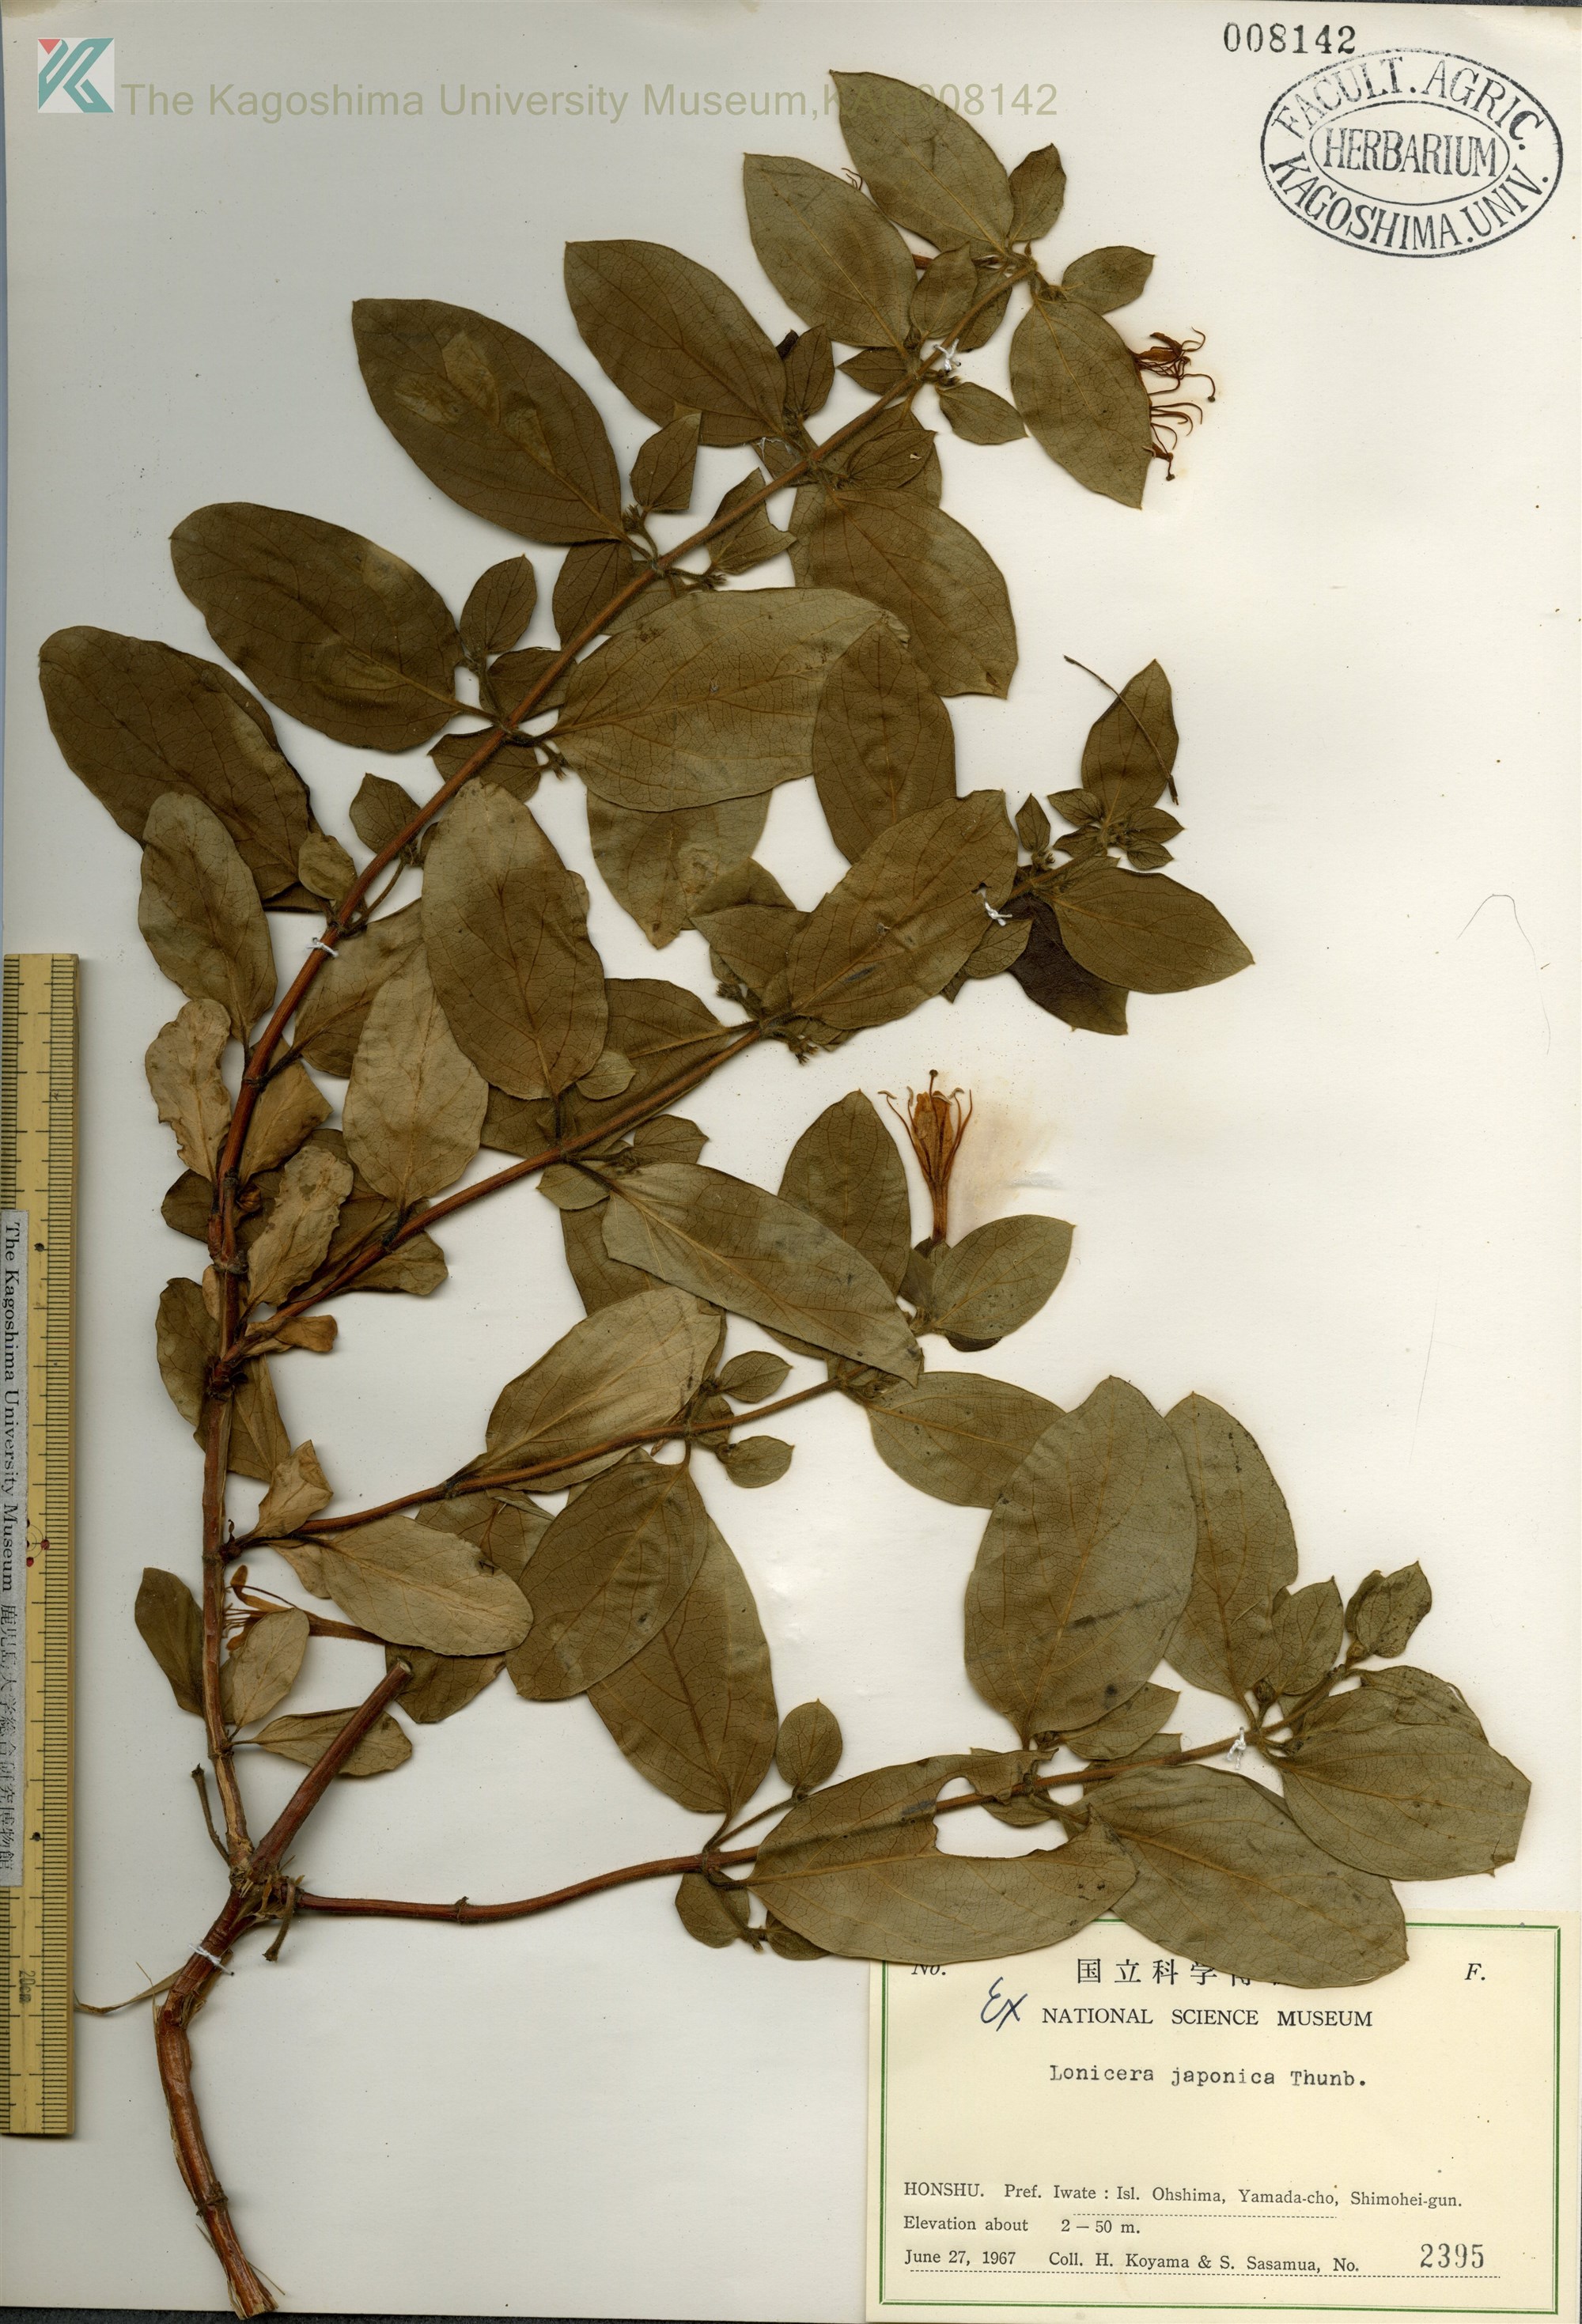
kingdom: Plantae
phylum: Tracheophyta
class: Magnoliopsida
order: Dipsacales
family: Caprifoliaceae
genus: Lonicera
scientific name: Lonicera japonica
